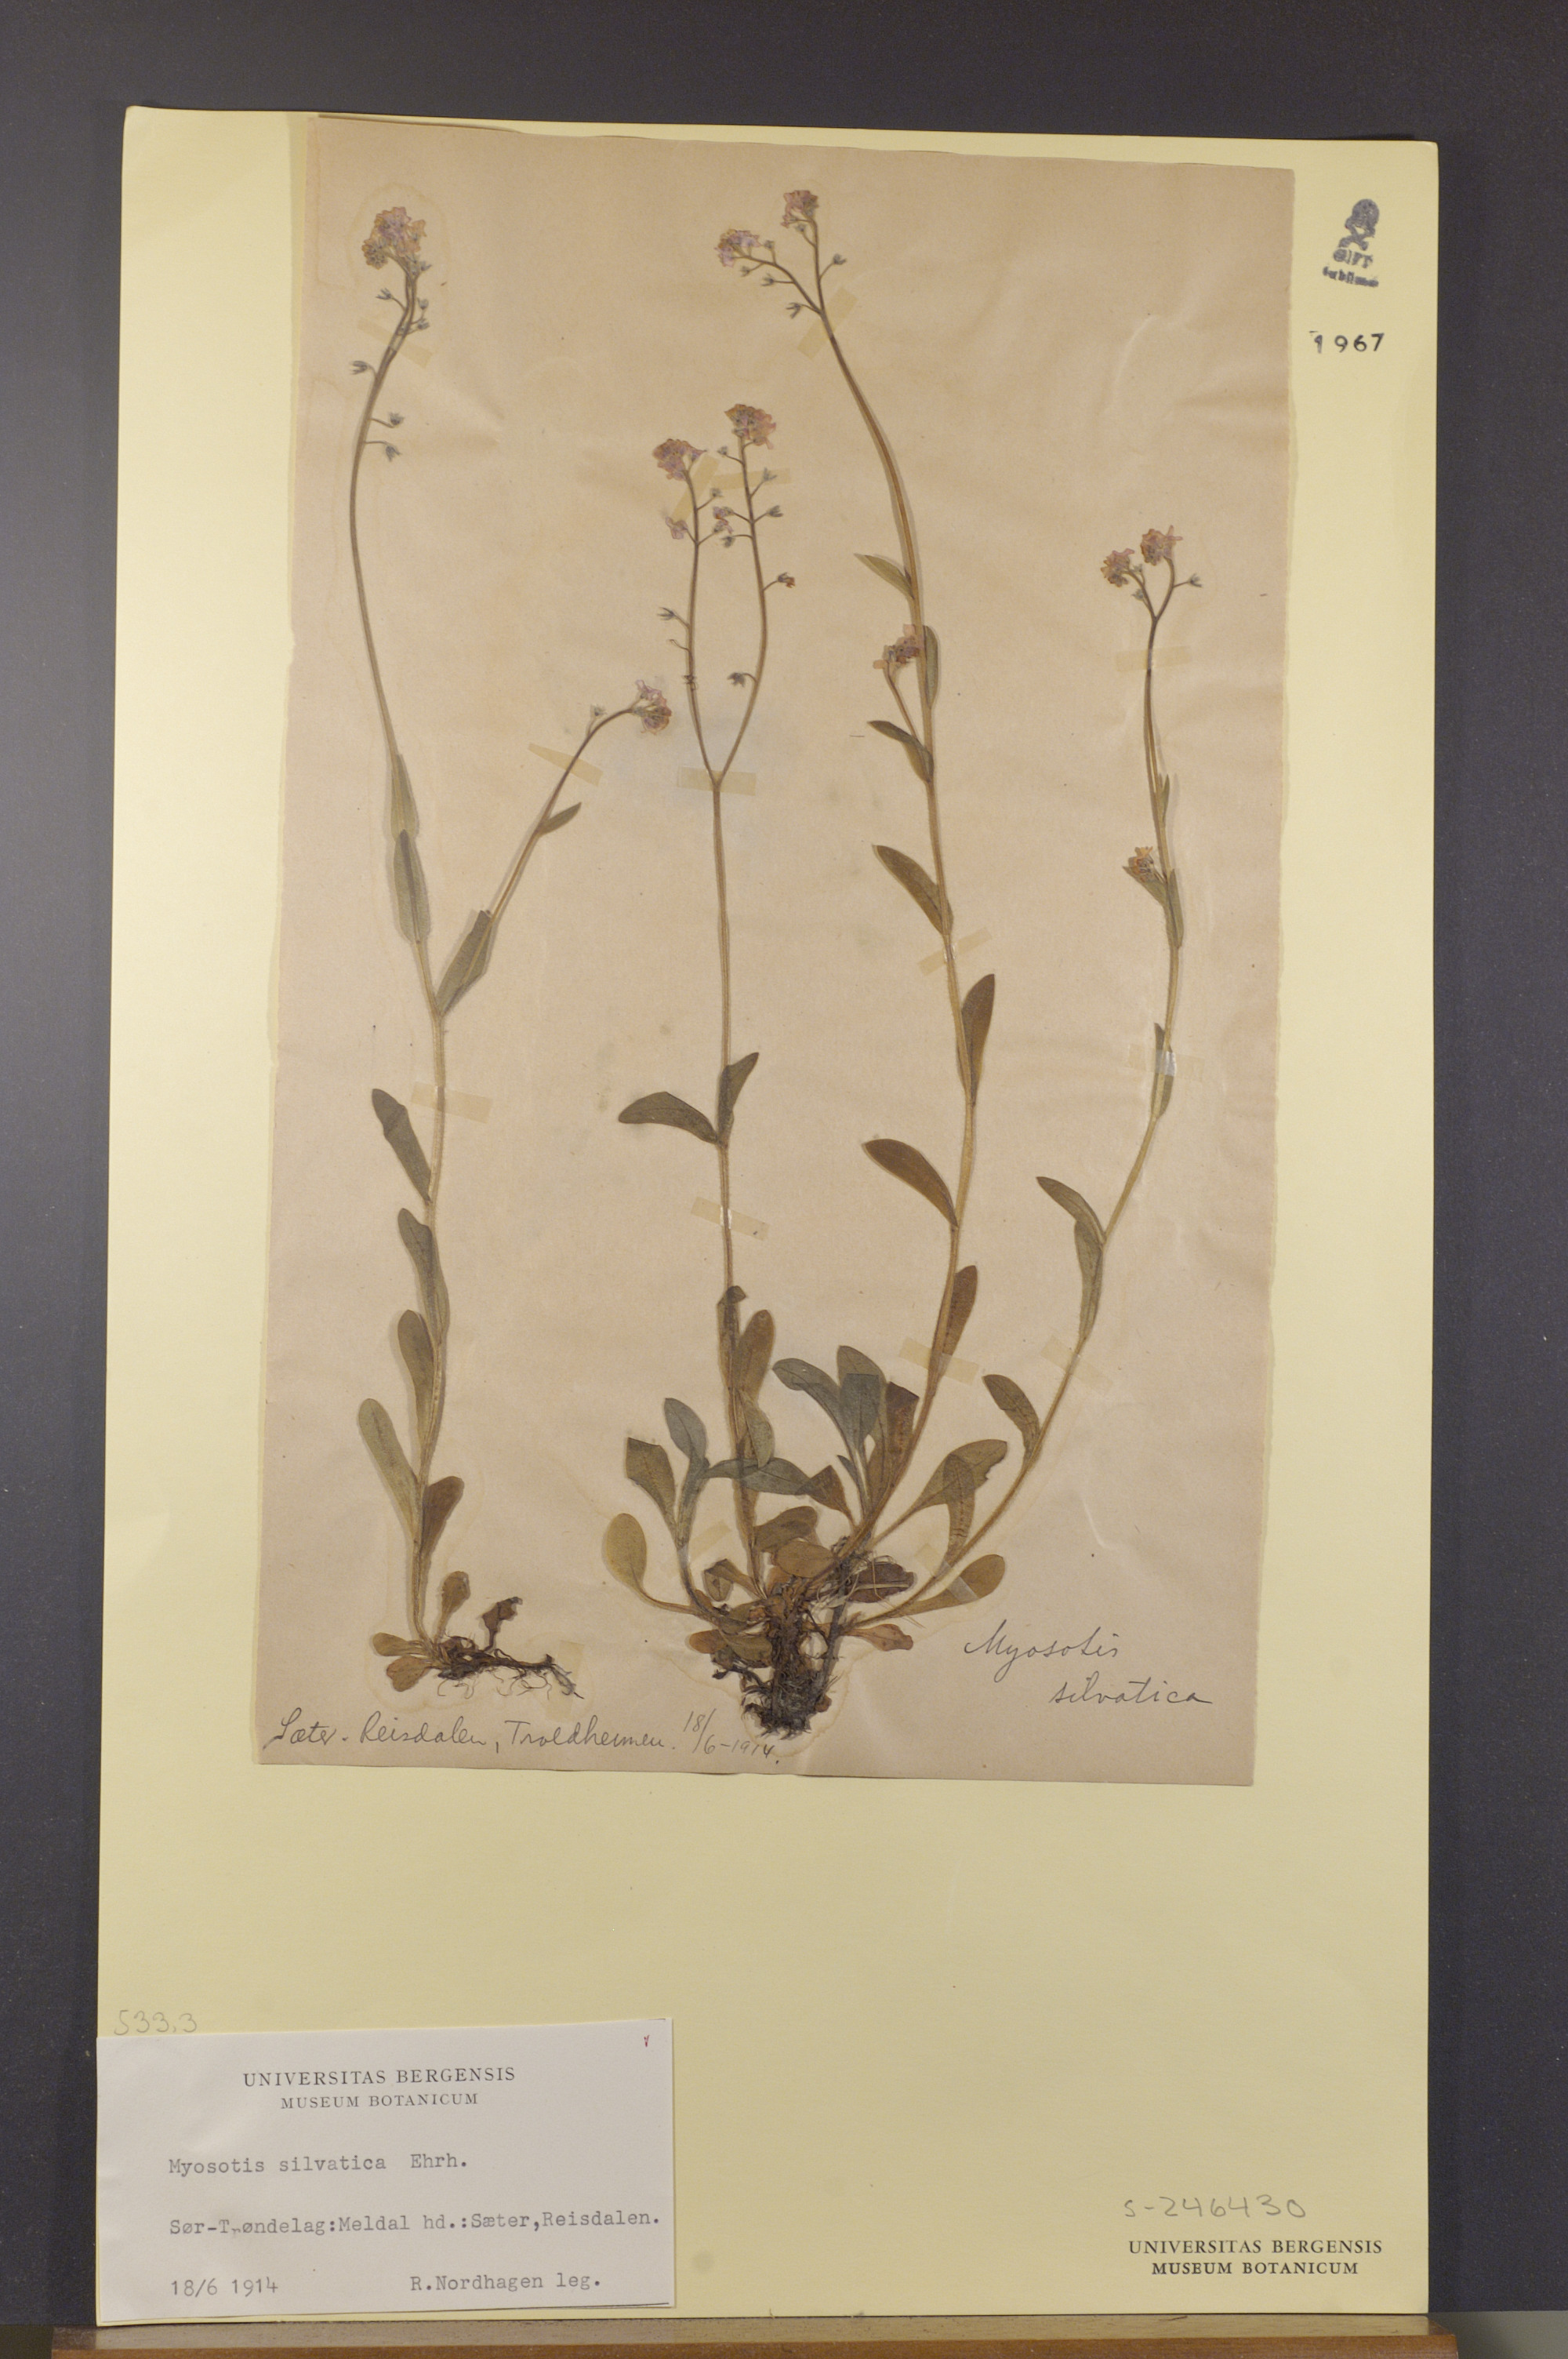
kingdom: Plantae
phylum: Tracheophyta
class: Magnoliopsida
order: Boraginales
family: Boraginaceae
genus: Myosotis
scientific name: Myosotis decumbens
